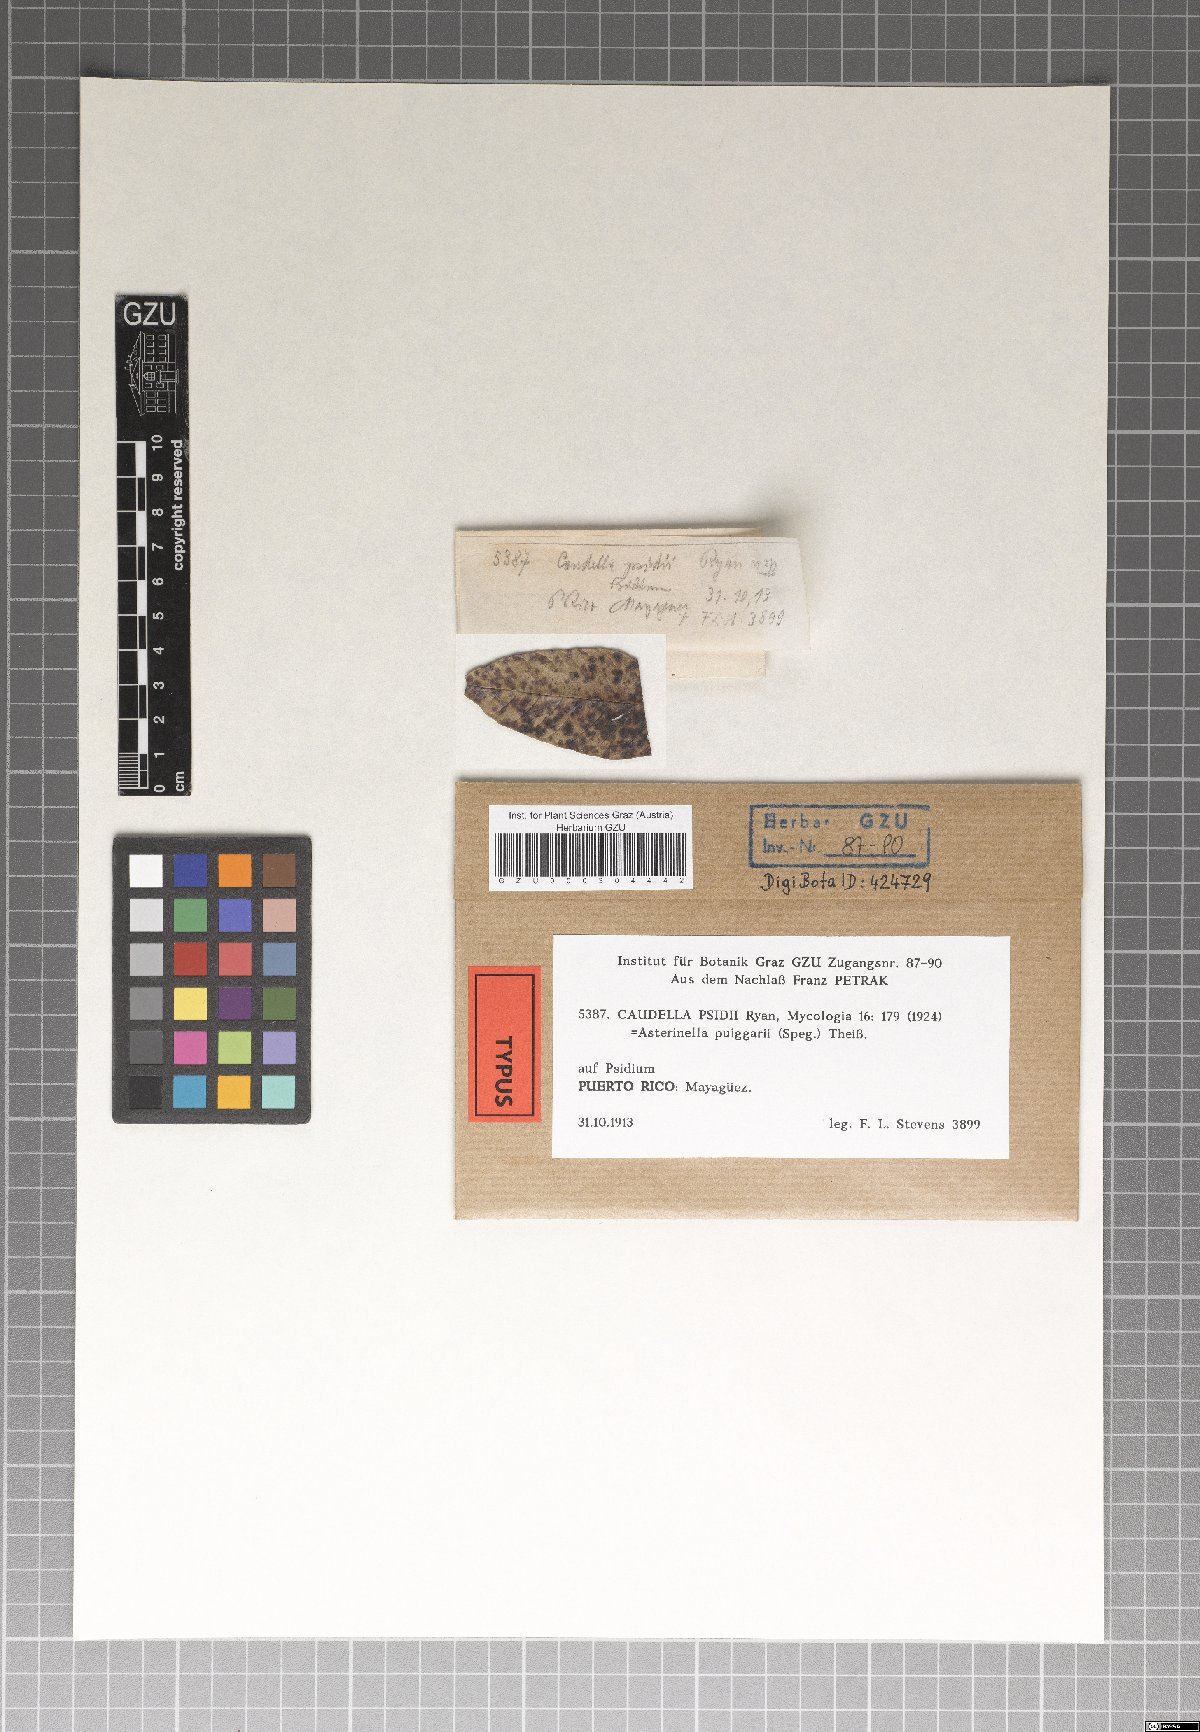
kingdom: Fungi
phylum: Ascomycota
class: Dothideomycetes
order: Microthyriales
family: Microthyriaceae
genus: Caudella
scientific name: Caudella psidii
